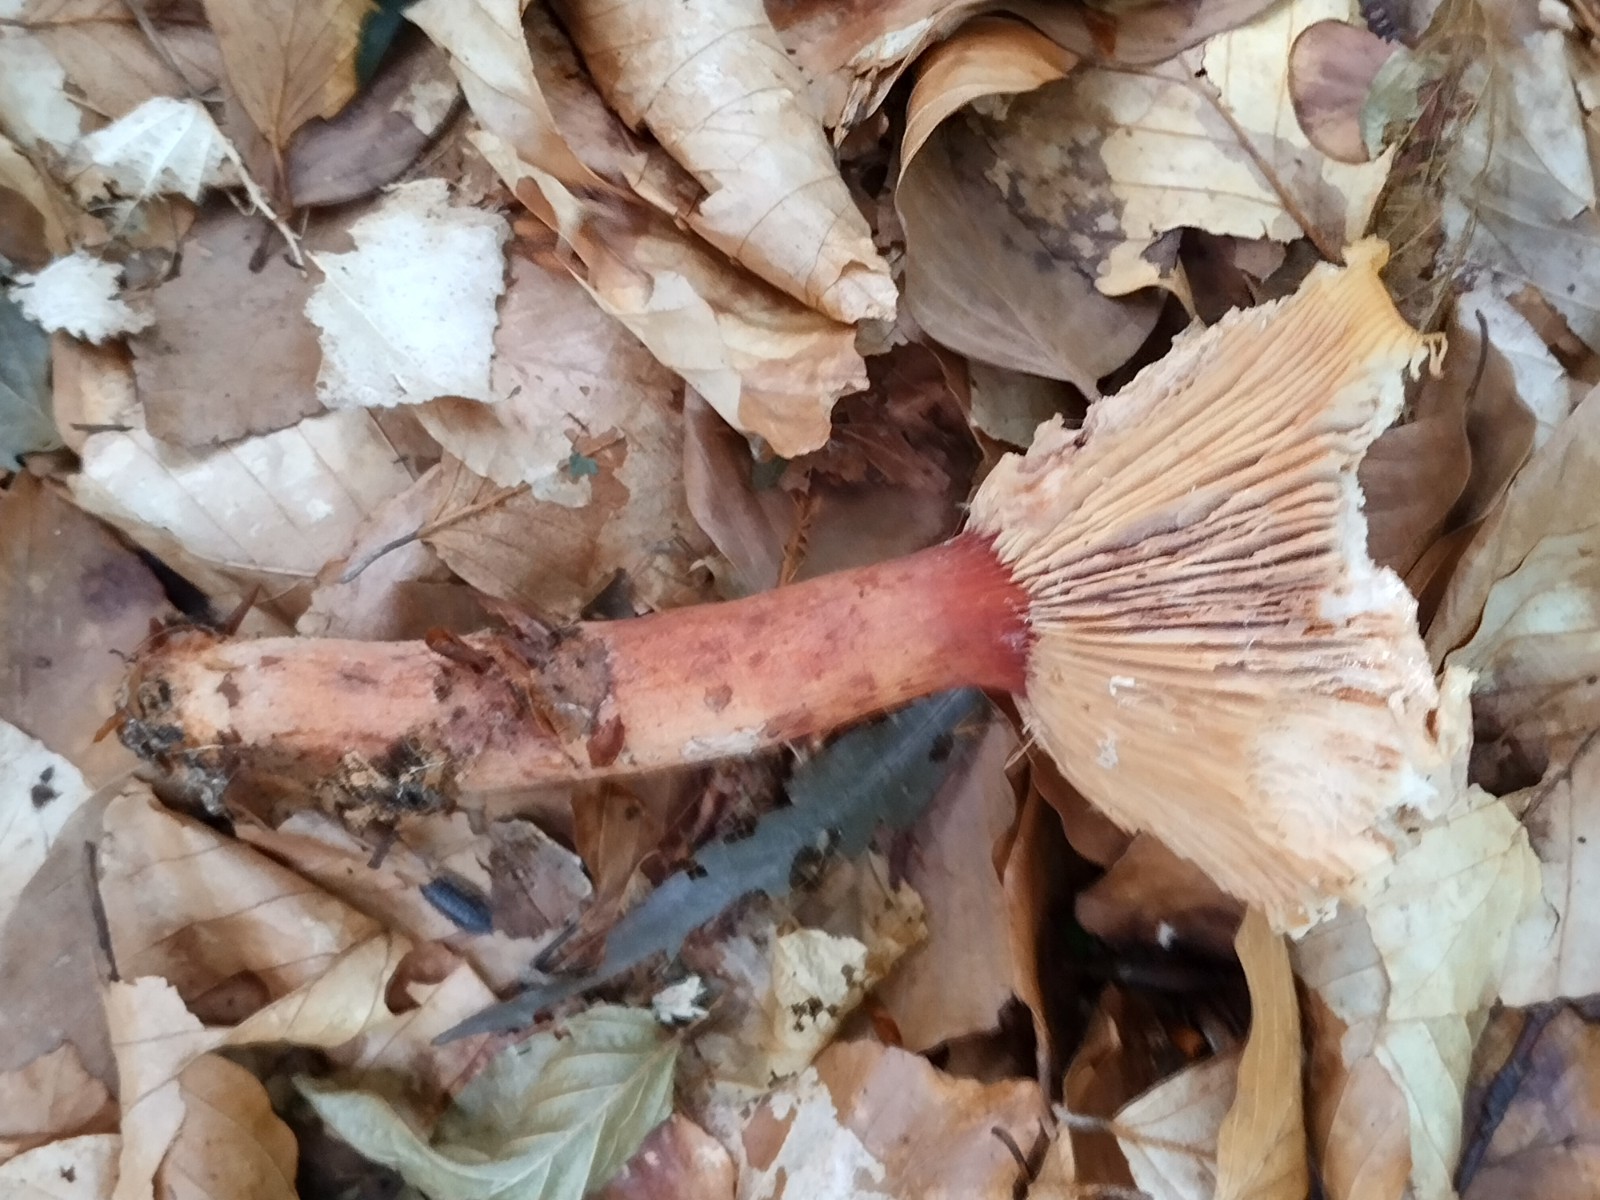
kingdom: Fungi
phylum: Basidiomycota
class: Agaricomycetes
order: Russulales
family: Russulaceae
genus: Lactarius
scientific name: Lactarius subdulcis
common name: sødlig mælkehat
